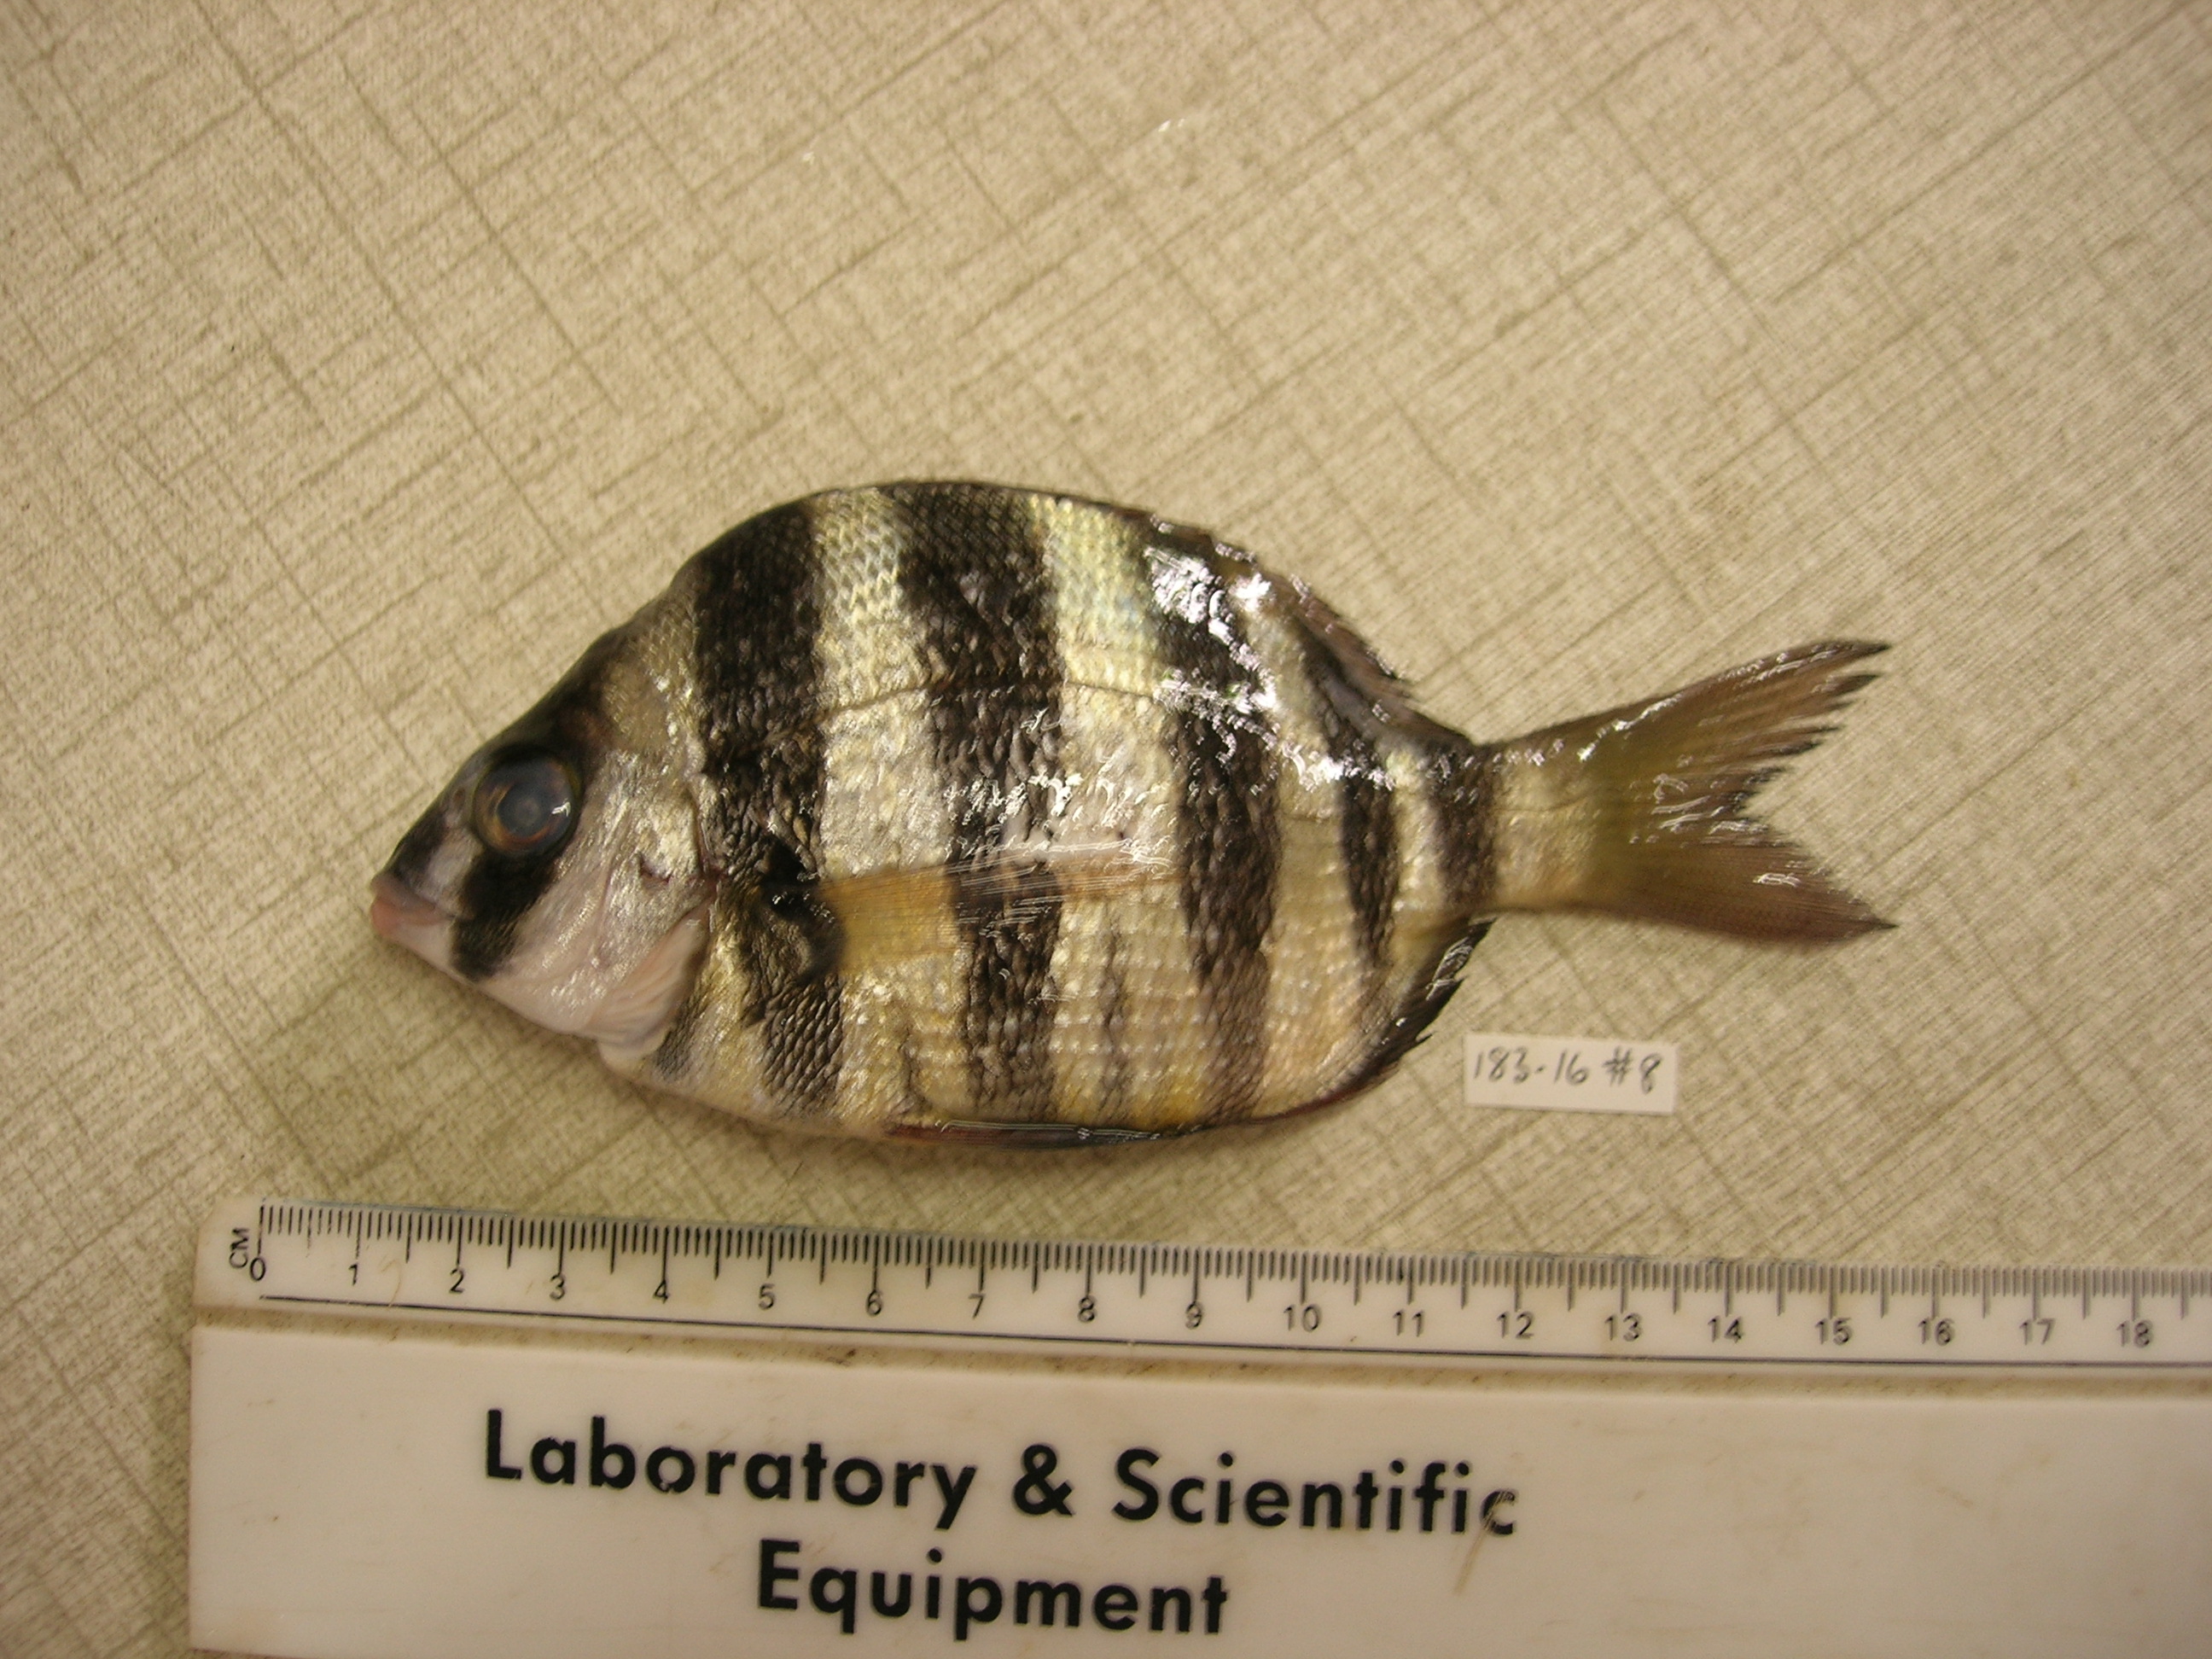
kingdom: Animalia
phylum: Chordata
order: Perciformes
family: Sparidae
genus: Diplodus
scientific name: Diplodus cervinus
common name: Oman porgy
